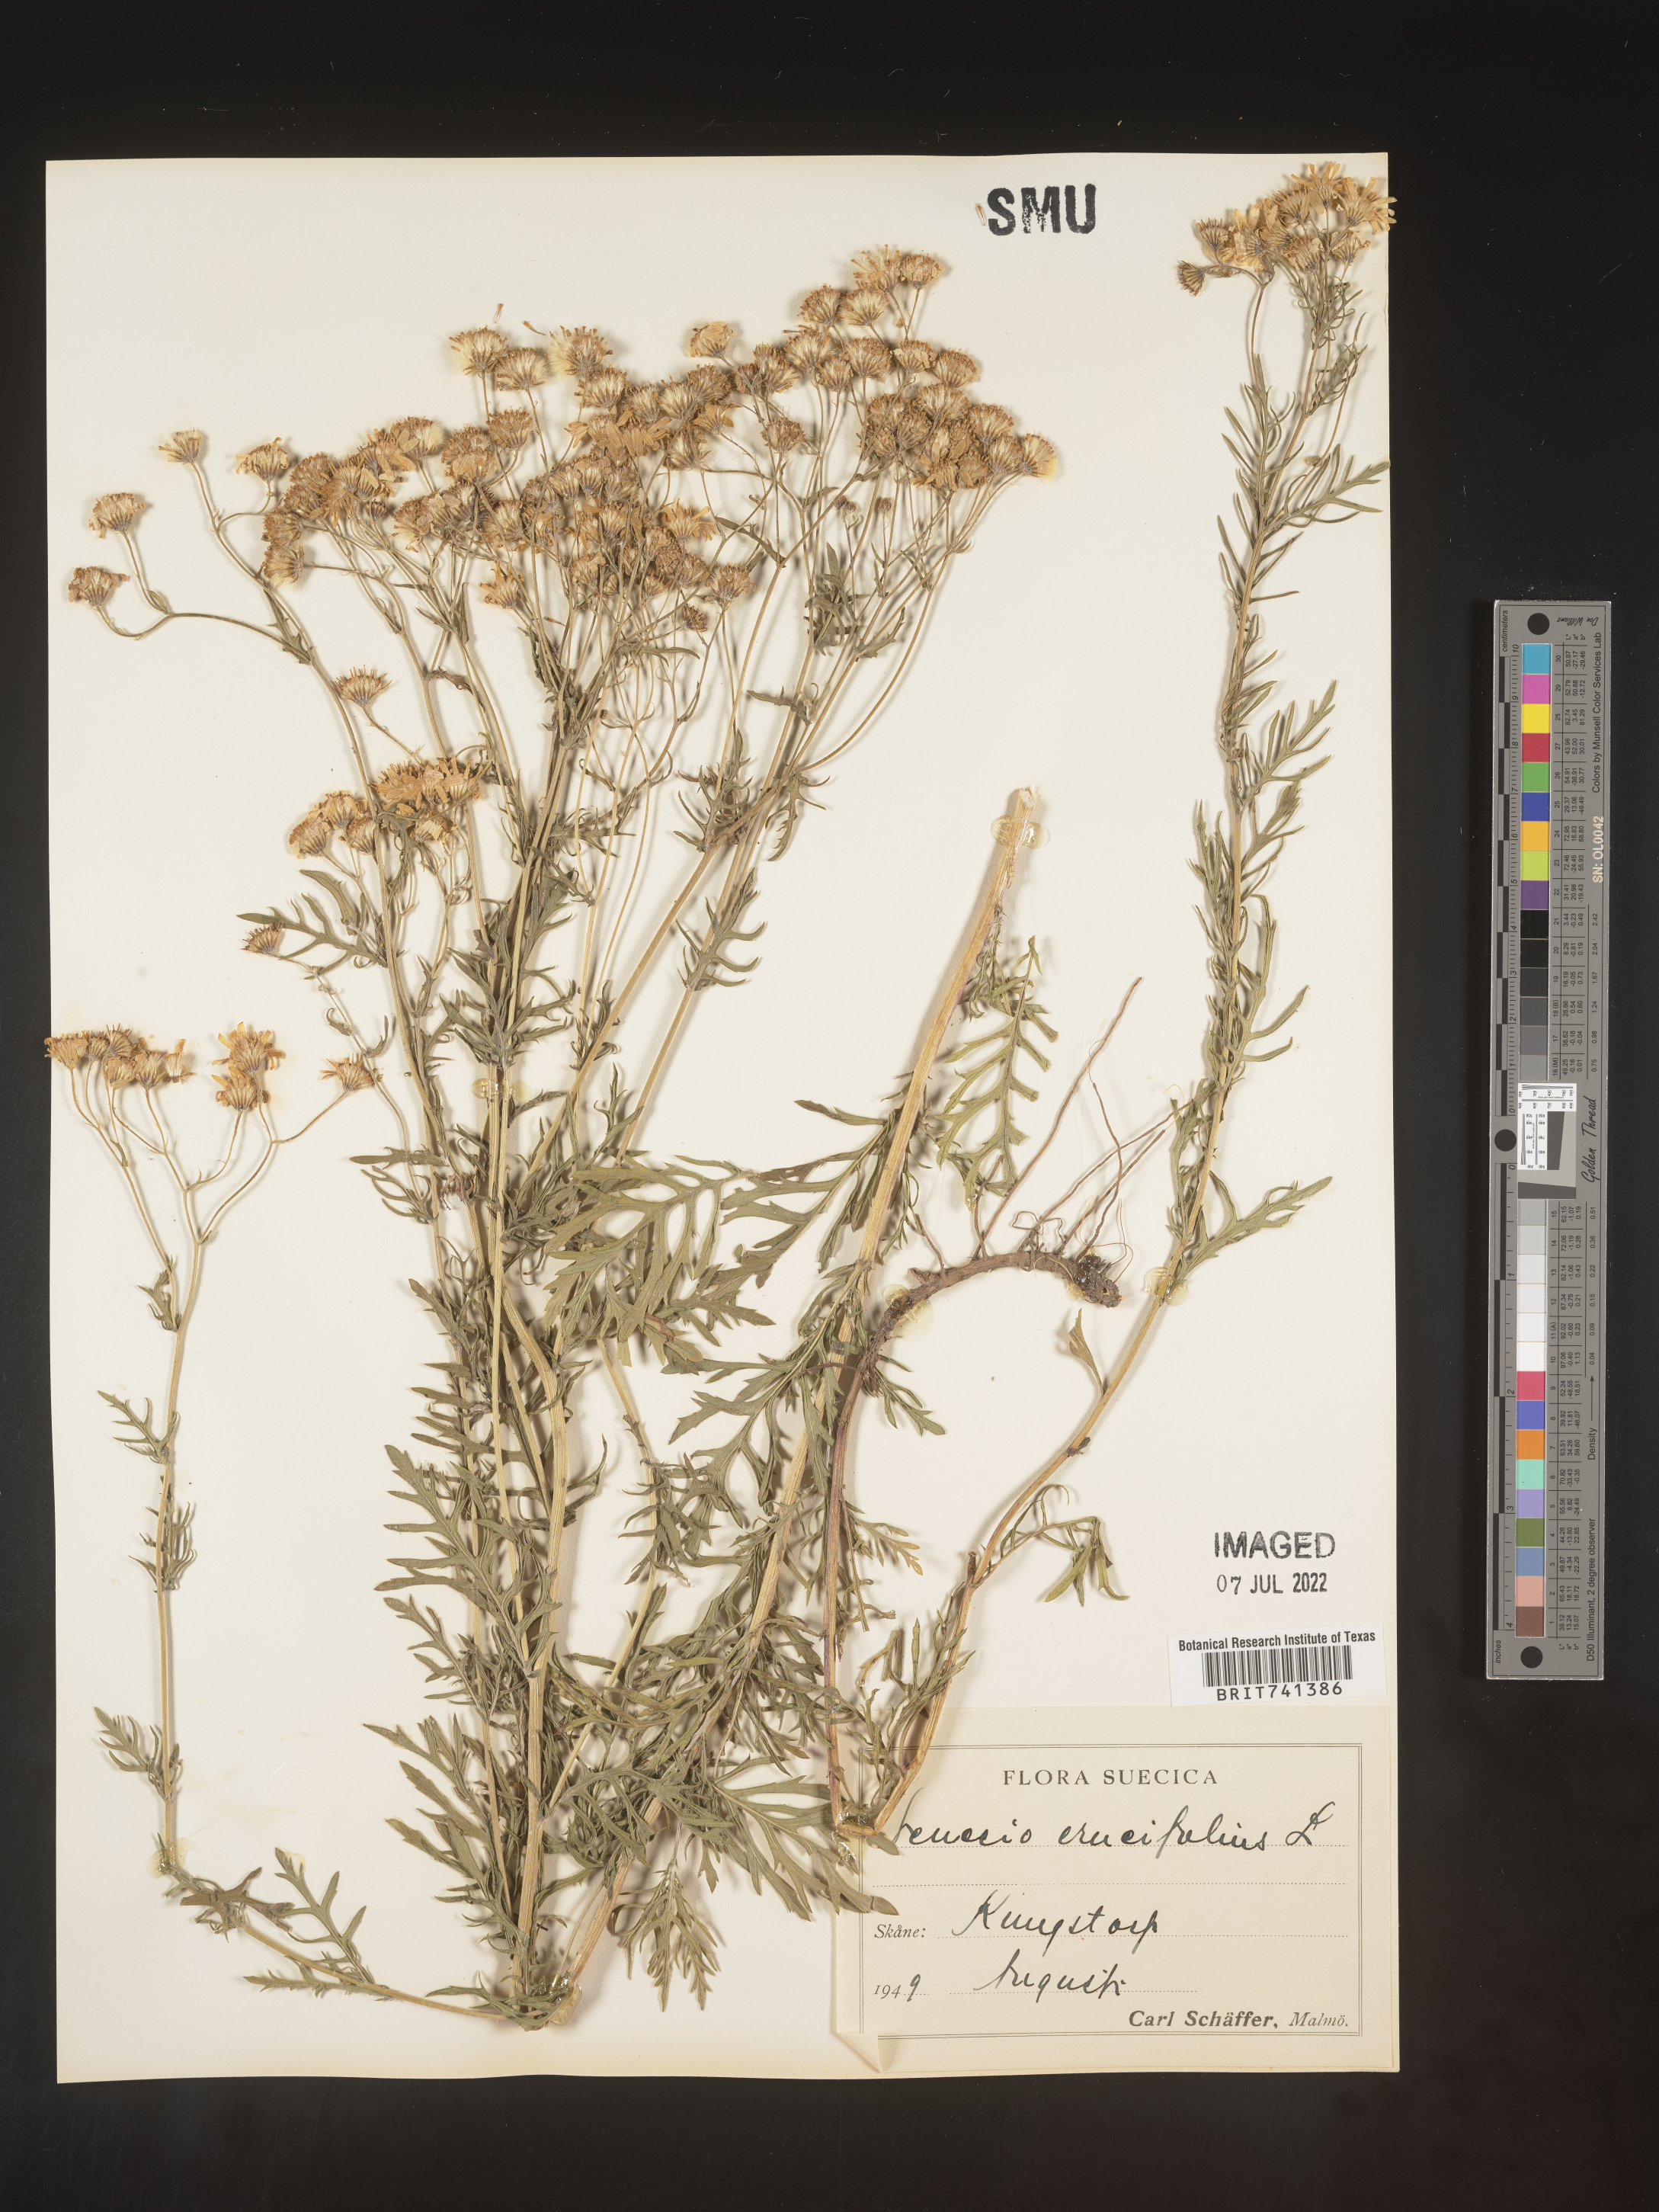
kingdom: Plantae
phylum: Tracheophyta
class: Magnoliopsida
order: Asterales
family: Asteraceae
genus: Senecio
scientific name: Senecio
